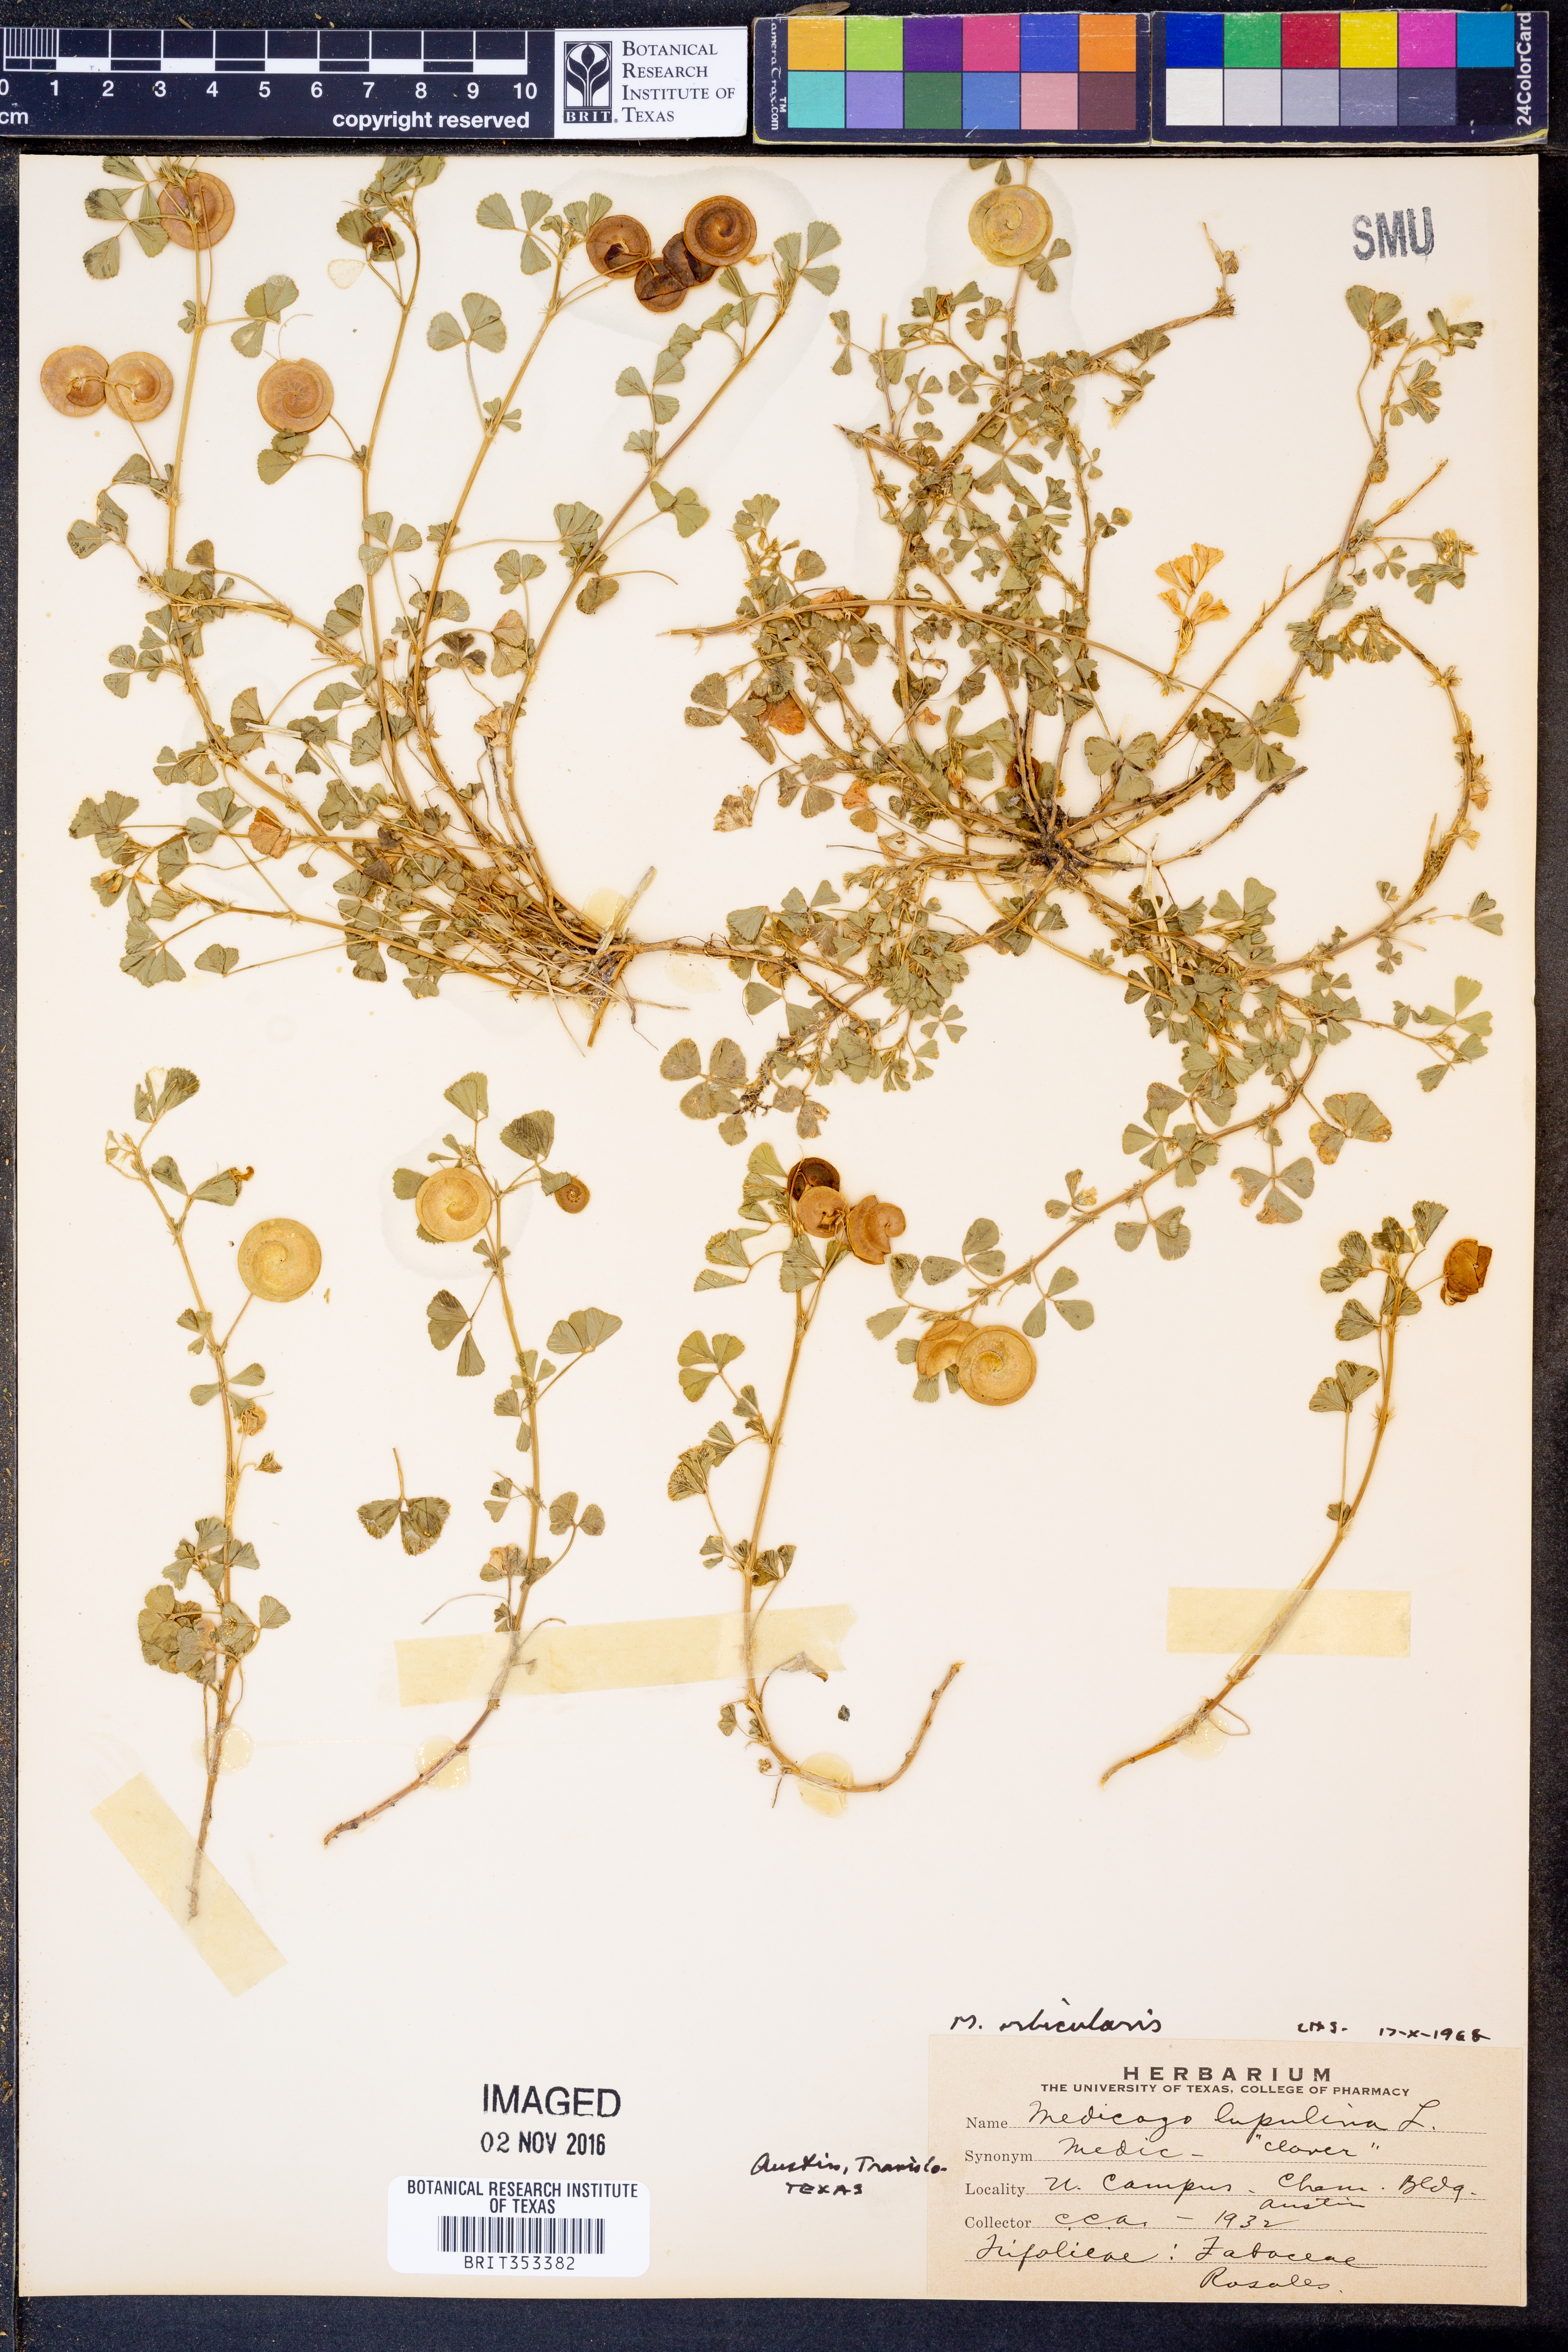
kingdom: Plantae
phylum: Tracheophyta
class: Magnoliopsida
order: Fabales
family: Fabaceae
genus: Medicago
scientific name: Medicago orbicularis
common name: Button medick
